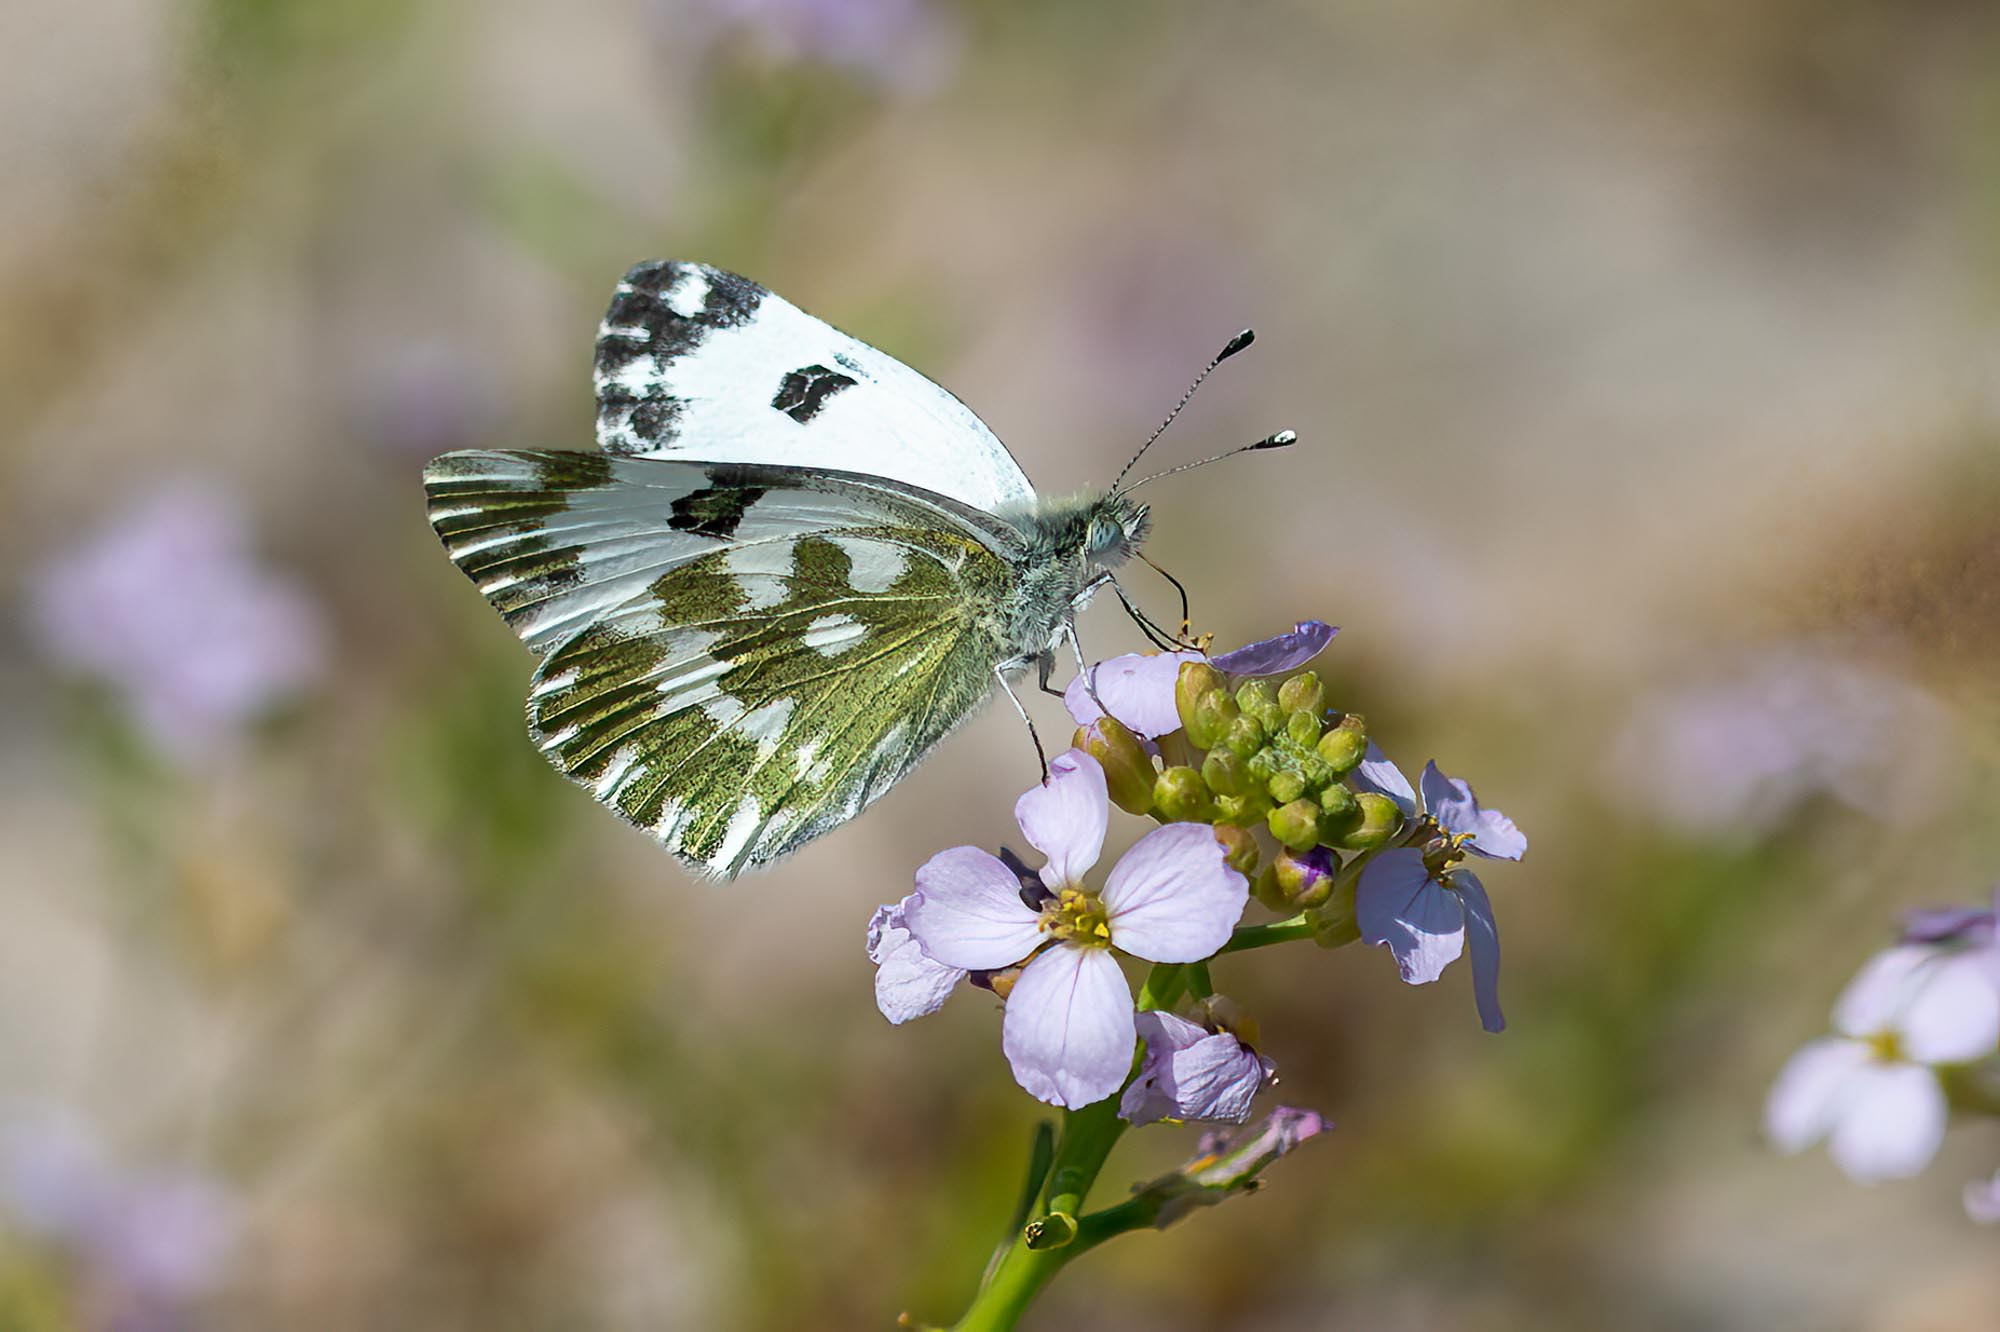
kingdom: Animalia
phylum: Arthropoda
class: Insecta
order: Lepidoptera
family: Pieridae
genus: Pontia
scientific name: Pontia edusa
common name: Grønbroget kålsommerfugl
